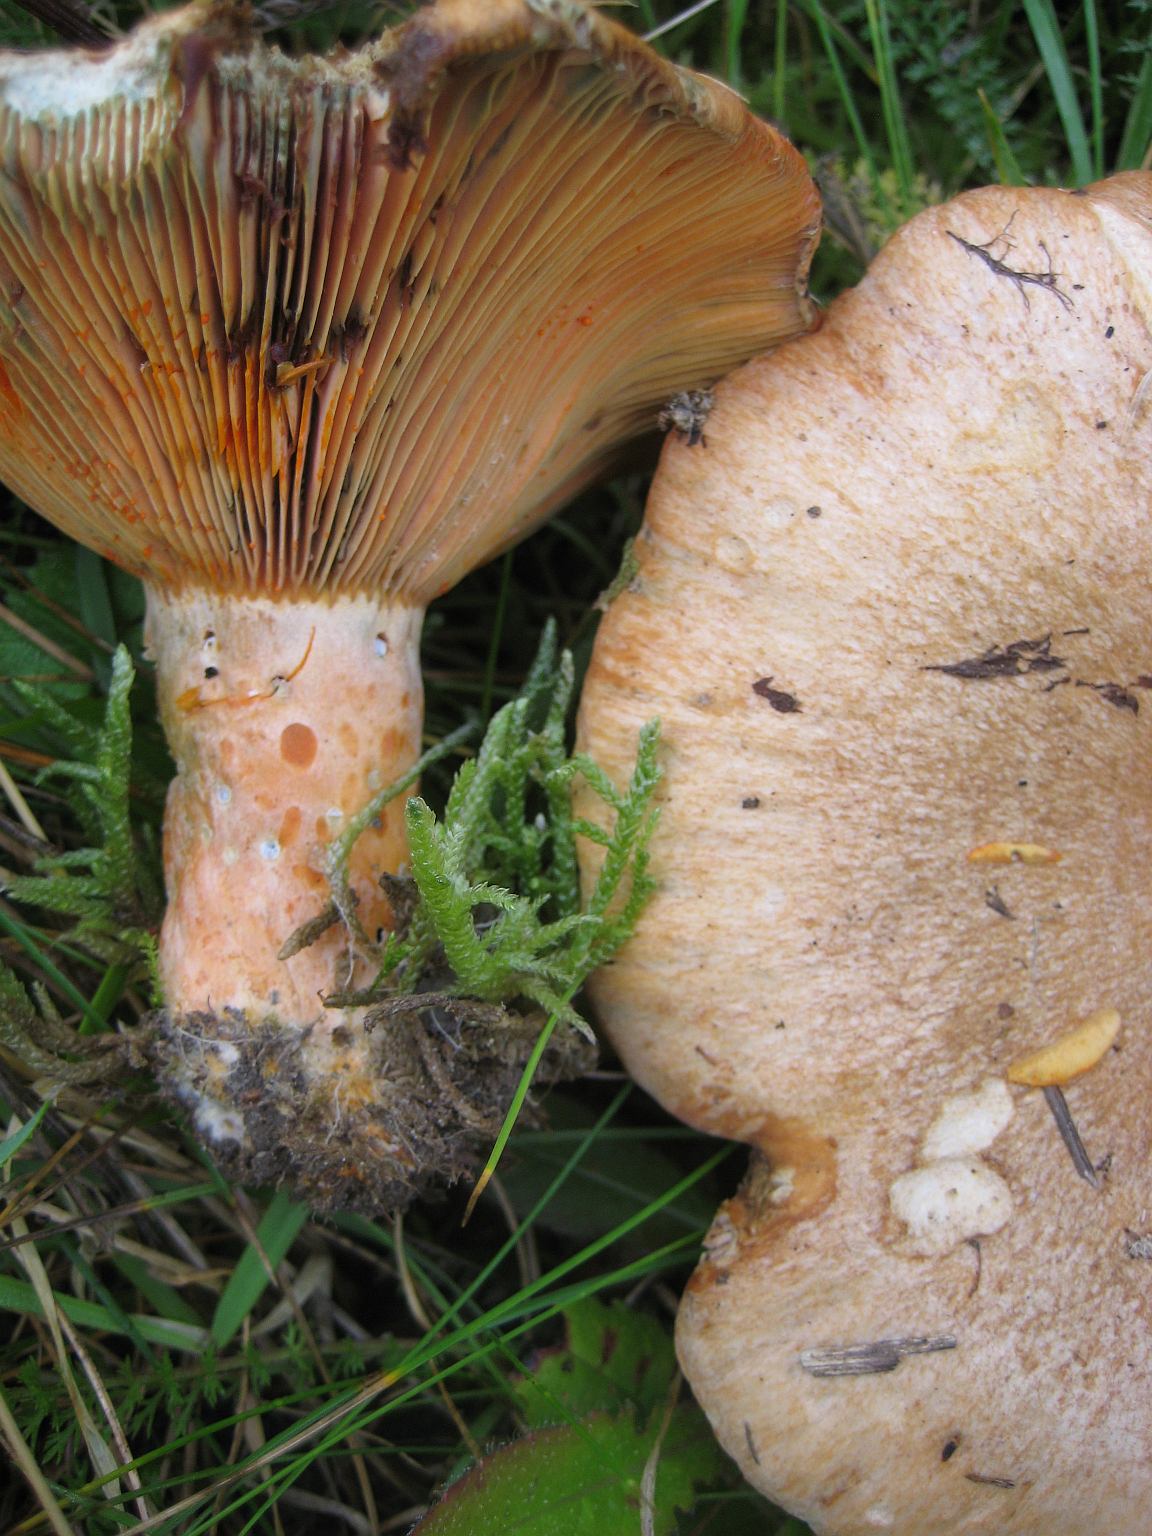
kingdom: Fungi
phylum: Basidiomycota
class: Agaricomycetes
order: Russulales
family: Russulaceae
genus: Lactarius
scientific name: Lactarius deliciosus
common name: velsmagende mælkehat
